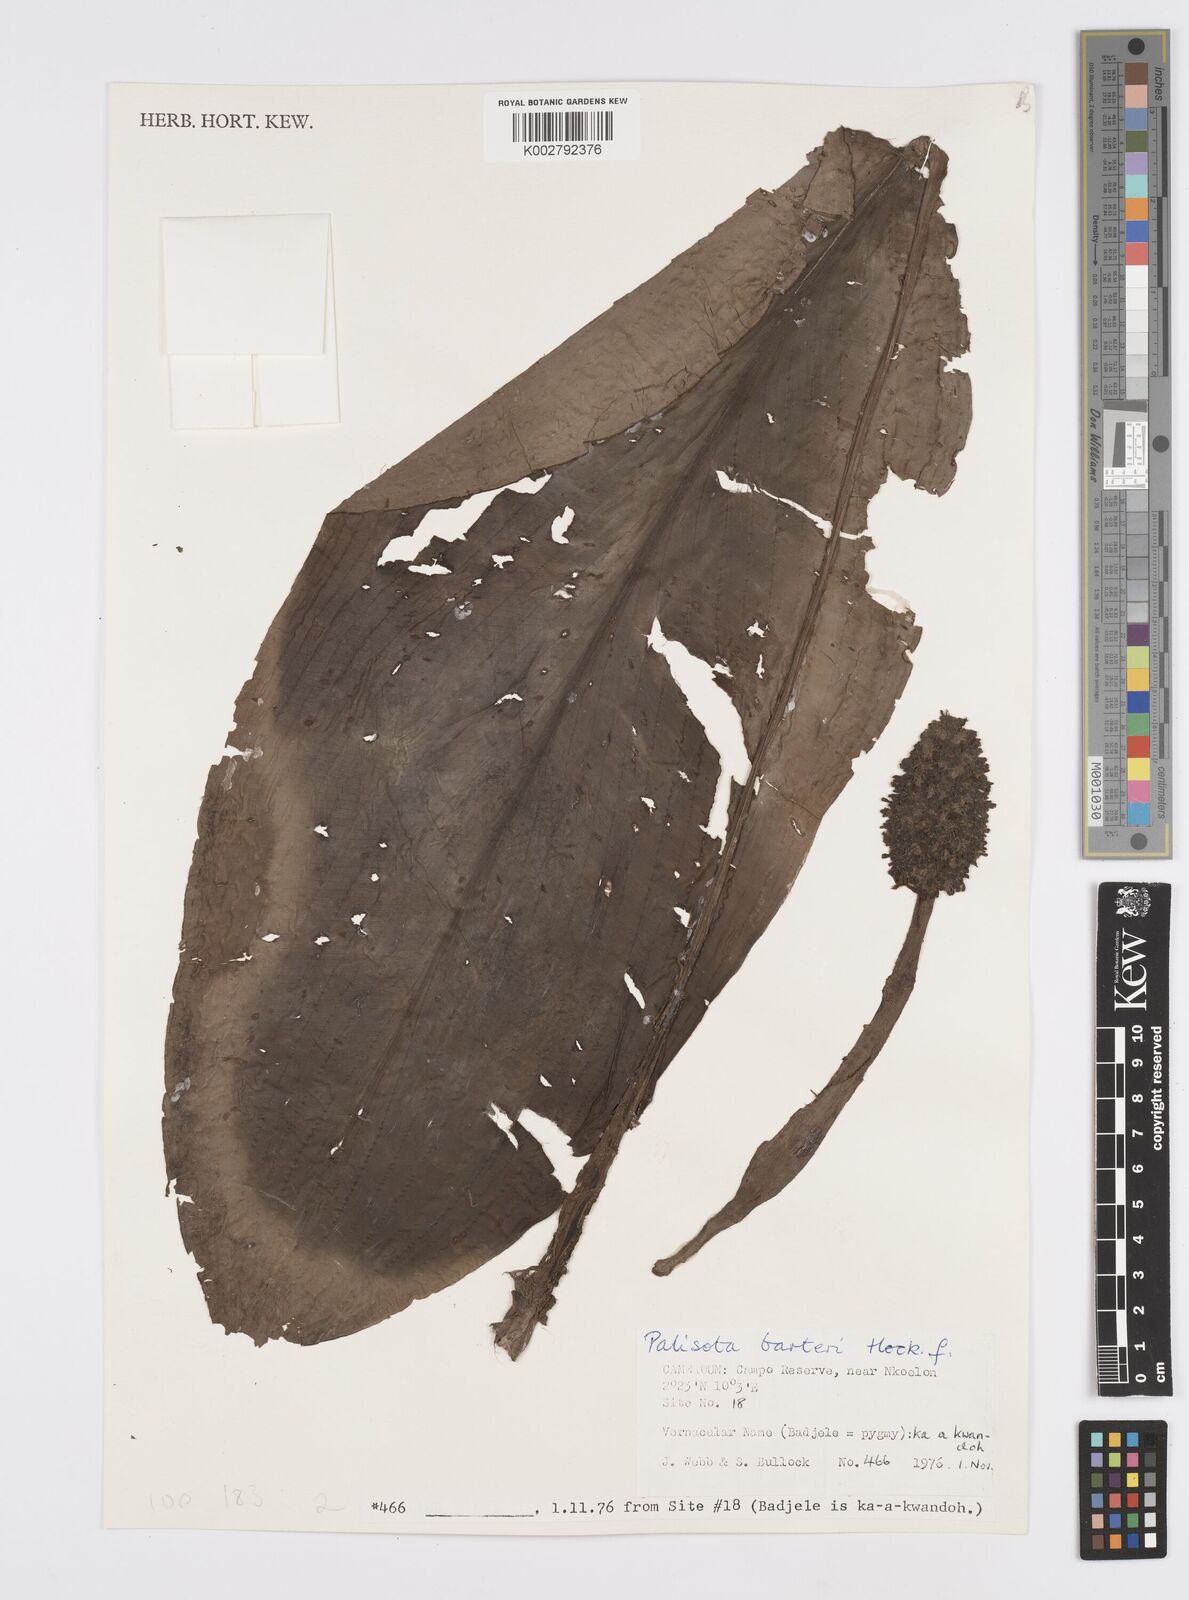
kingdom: Plantae
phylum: Tracheophyta
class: Liliopsida
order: Commelinales
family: Commelinaceae
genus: Palisota
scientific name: Palisota barteri
